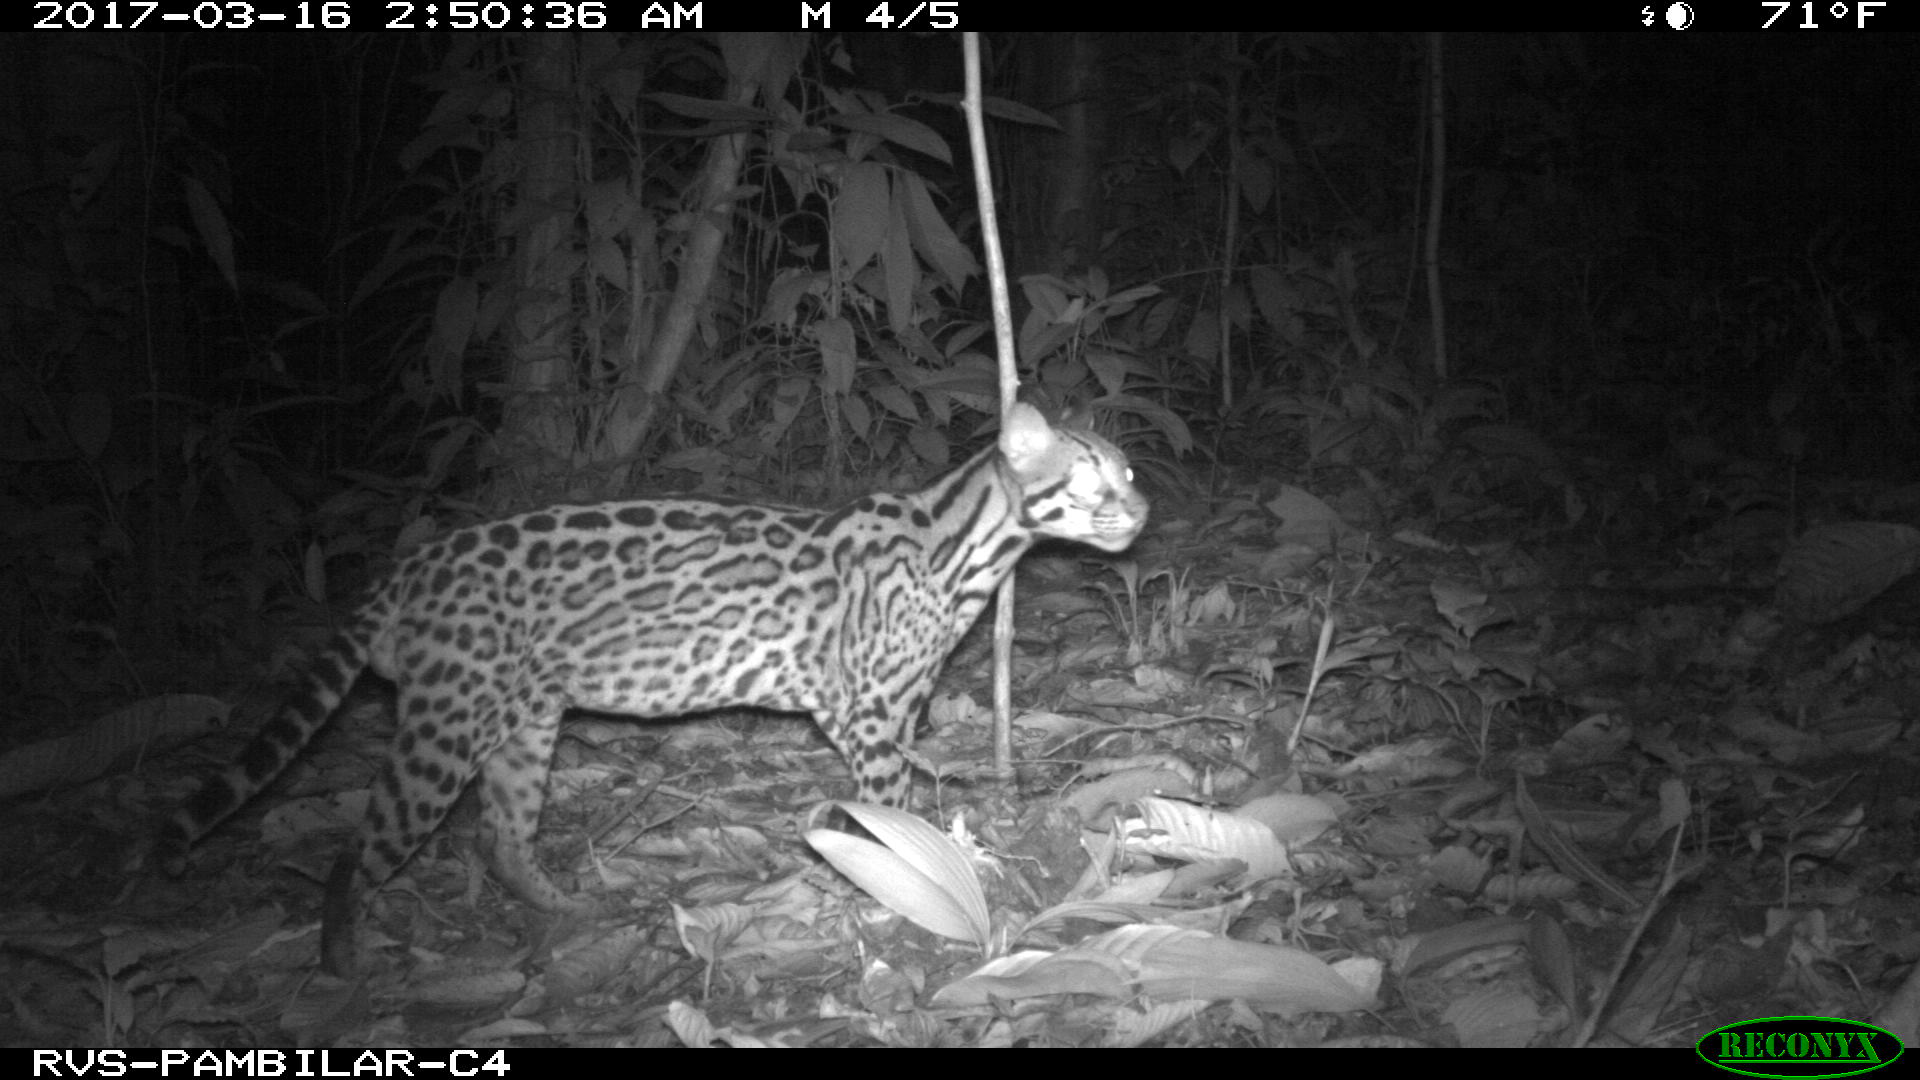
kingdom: Animalia
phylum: Chordata
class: Mammalia
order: Carnivora
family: Felidae
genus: Leopardus
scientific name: Leopardus pardalis
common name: Ocelot
